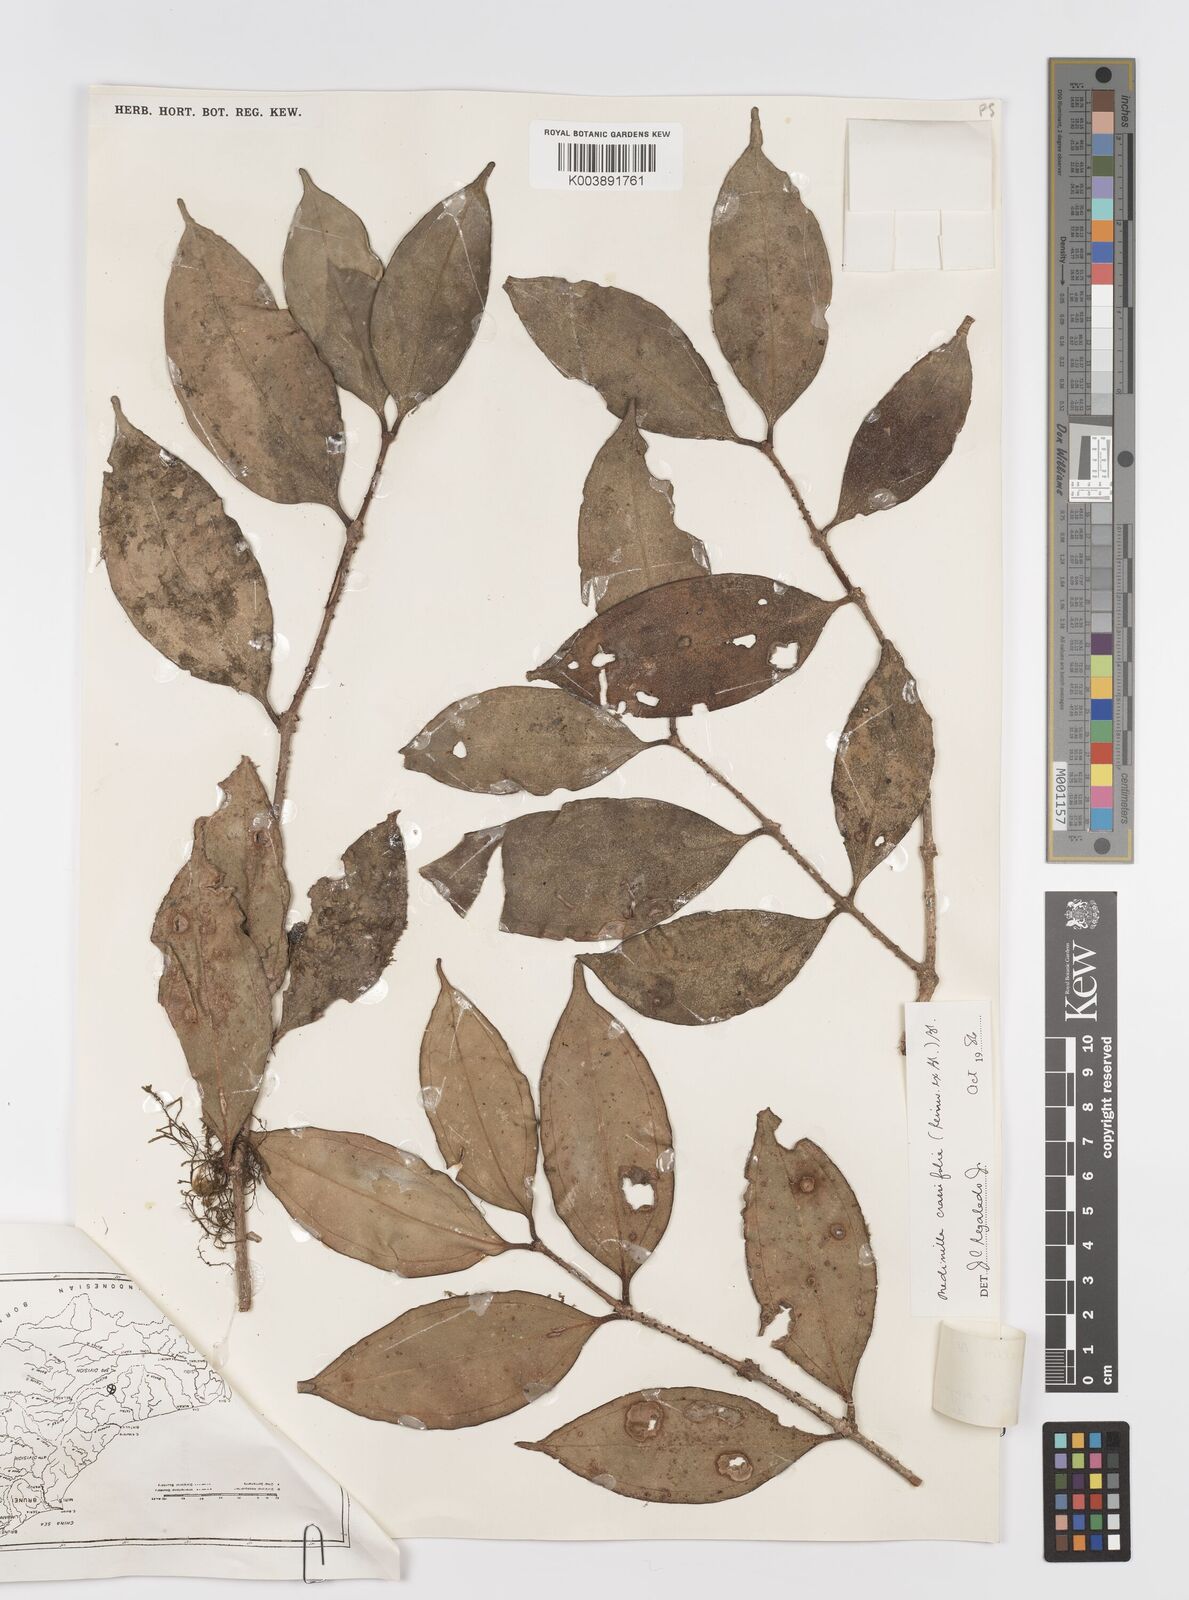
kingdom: Plantae
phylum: Tracheophyta
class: Magnoliopsida
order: Myrtales
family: Melastomataceae
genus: Medinilla
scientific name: Medinilla crassifolia
